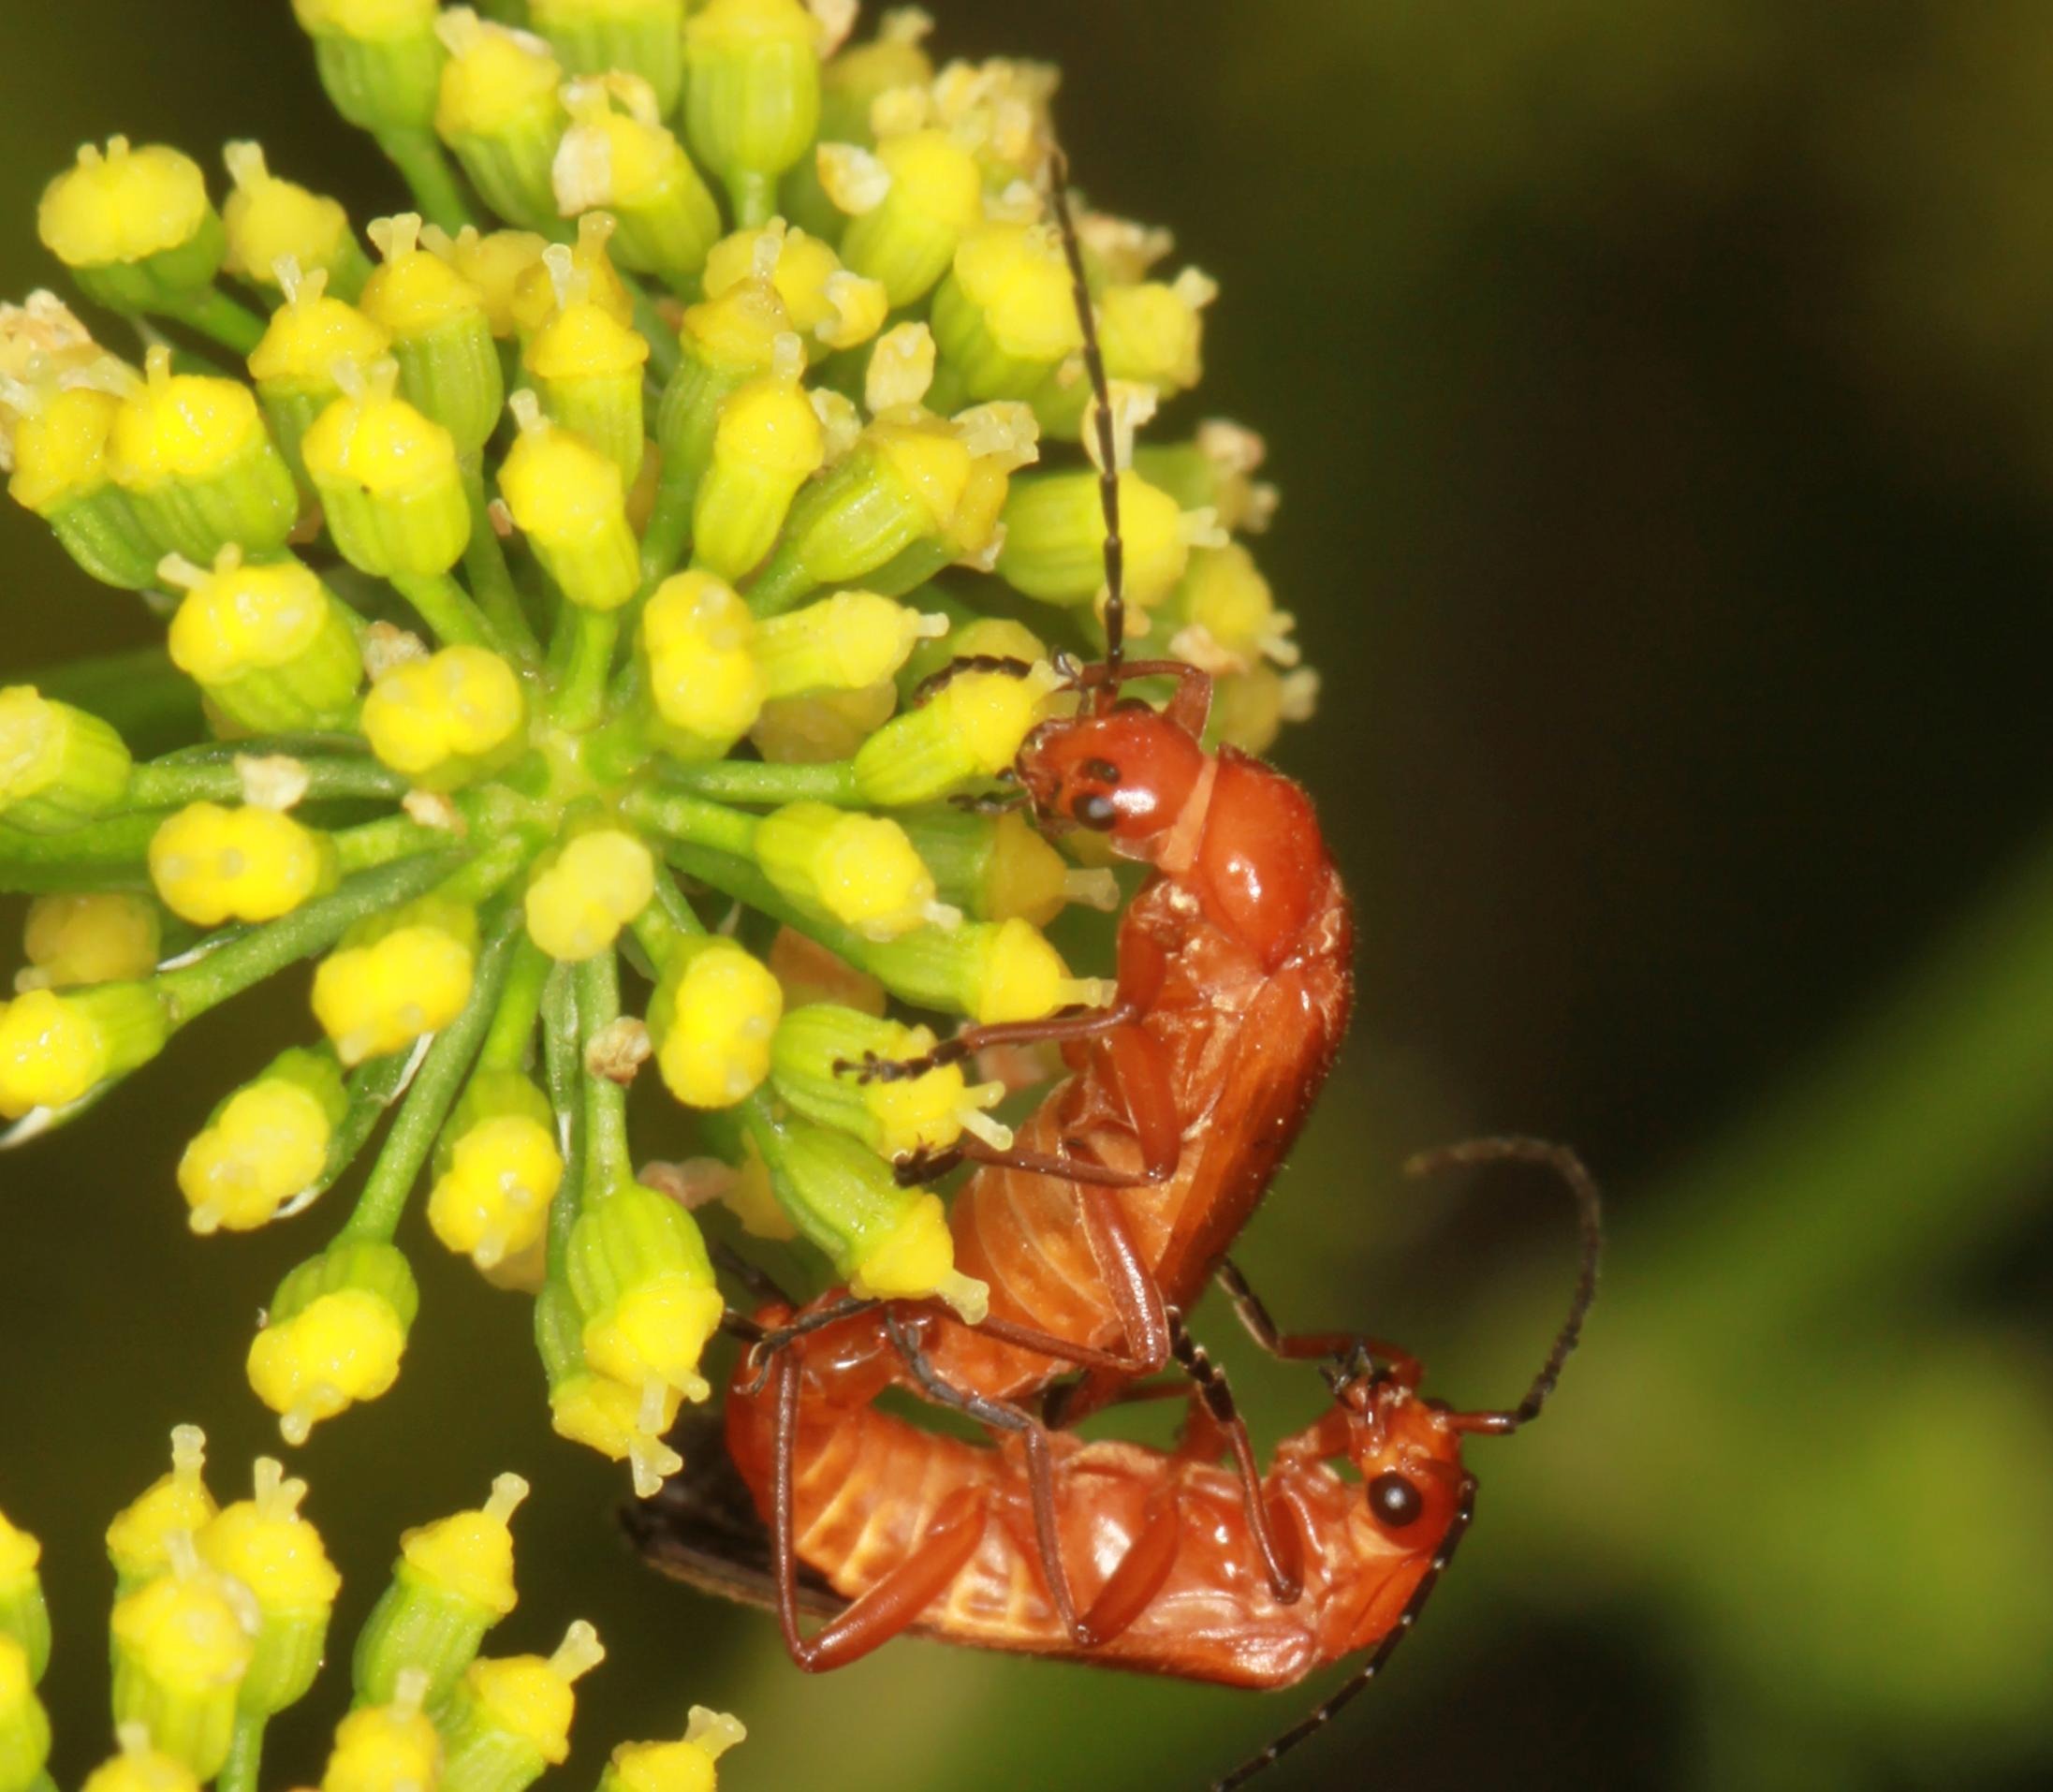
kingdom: Animalia
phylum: Arthropoda
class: Insecta
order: Coleoptera
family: Cantharidae
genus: Rhagonycha
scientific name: Rhagonycha fulva
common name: Præstebille
